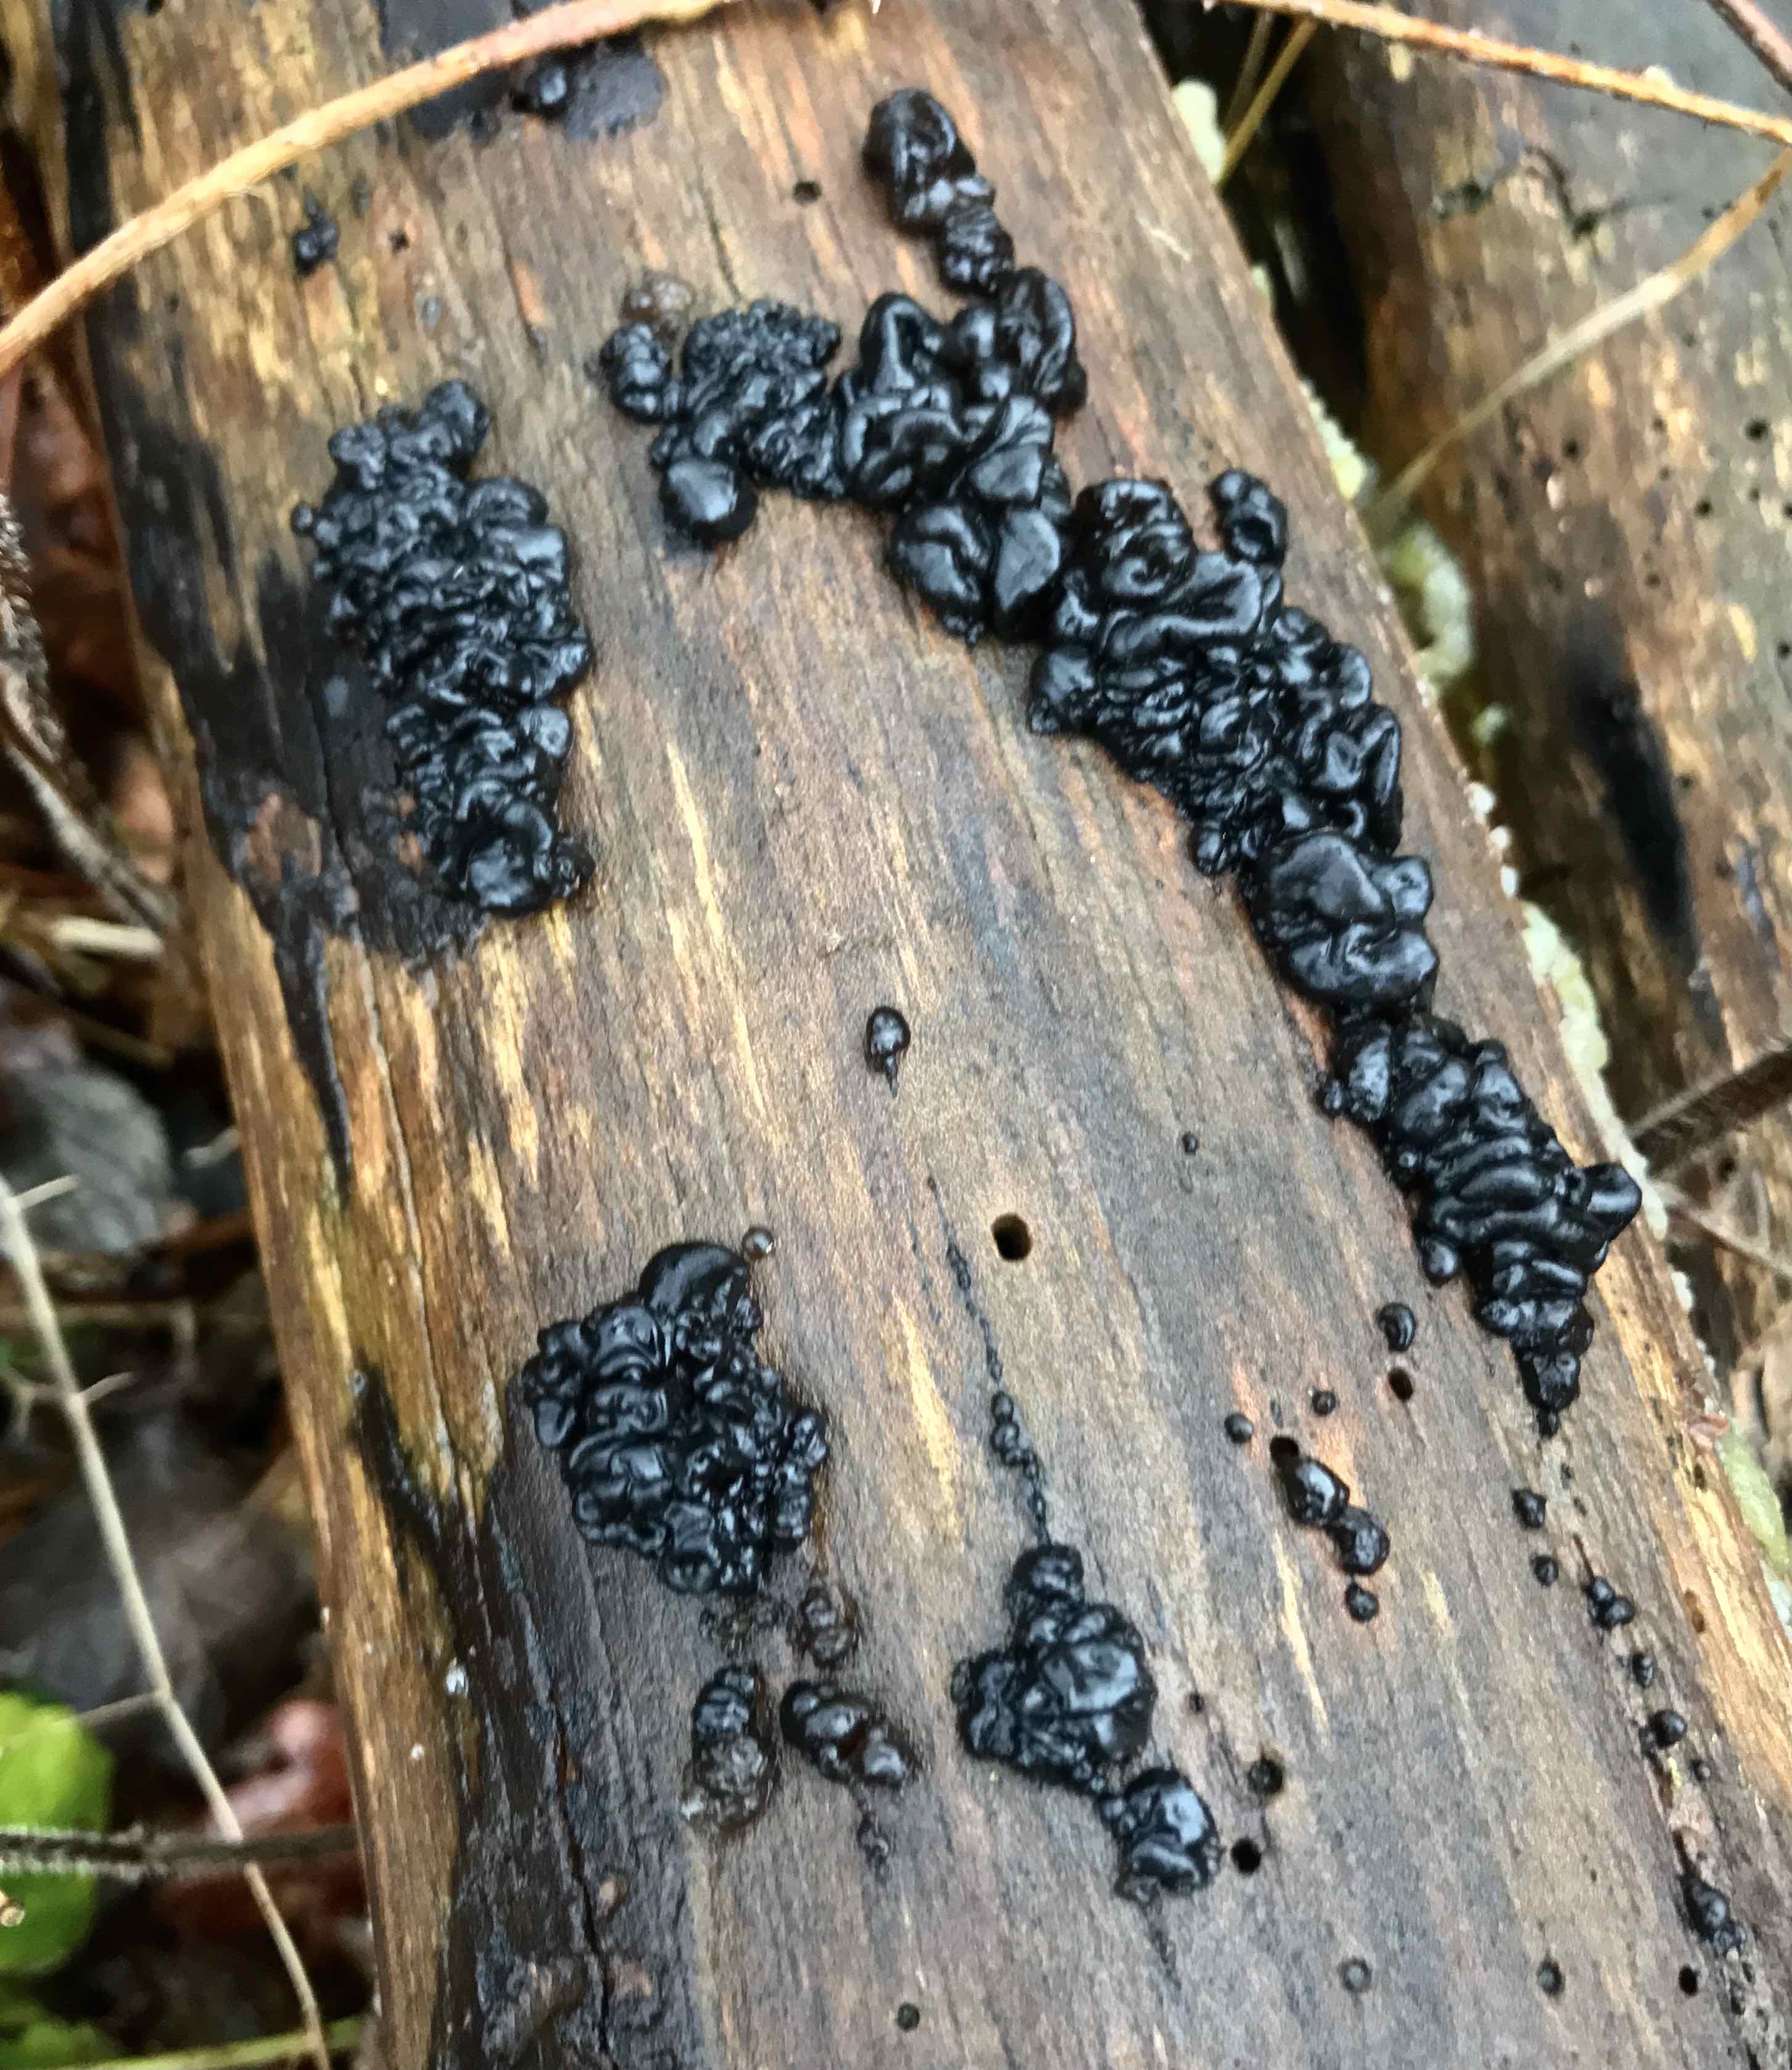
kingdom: Fungi
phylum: Basidiomycota
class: Agaricomycetes
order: Auriculariales
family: Auriculariaceae
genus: Exidia
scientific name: Exidia nigricans
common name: almindelig bævretop
